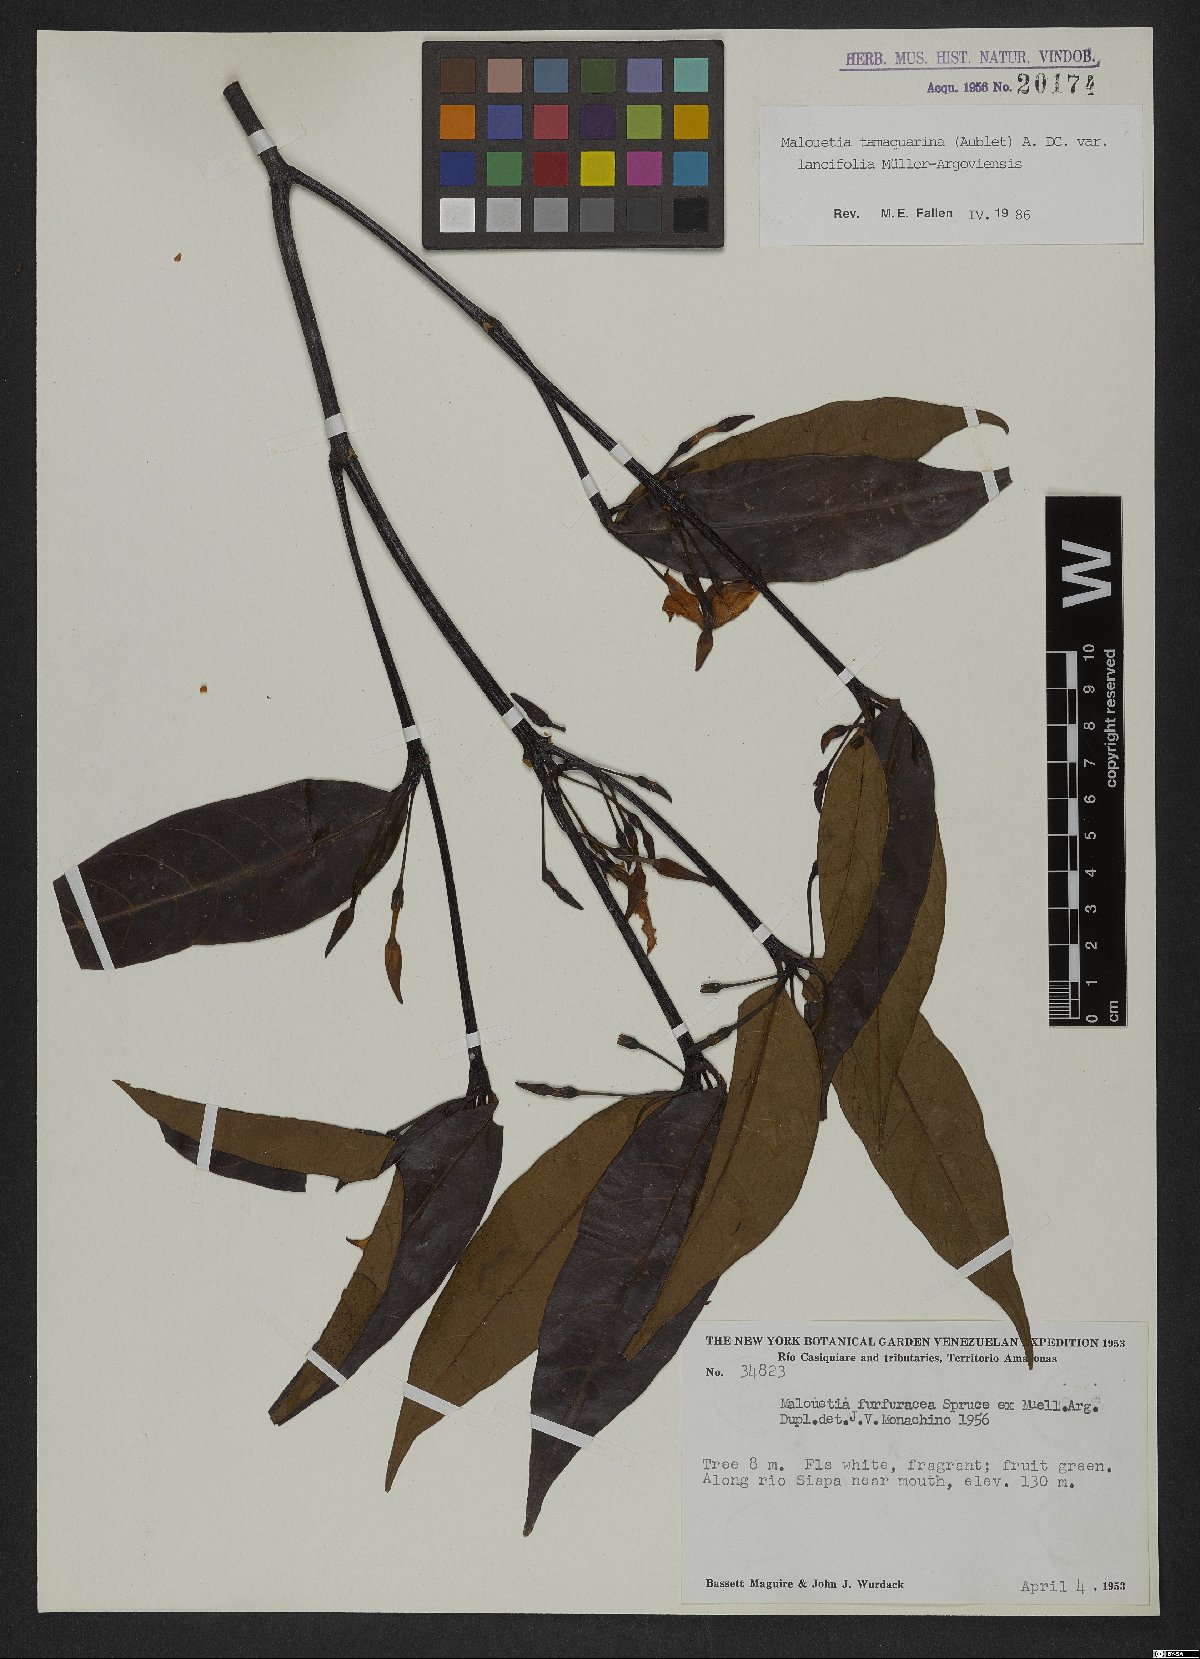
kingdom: Plantae
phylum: Tracheophyta
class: Magnoliopsida
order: Gentianales
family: Apocynaceae
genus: Malouetia
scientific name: Malouetia tamaquarina
